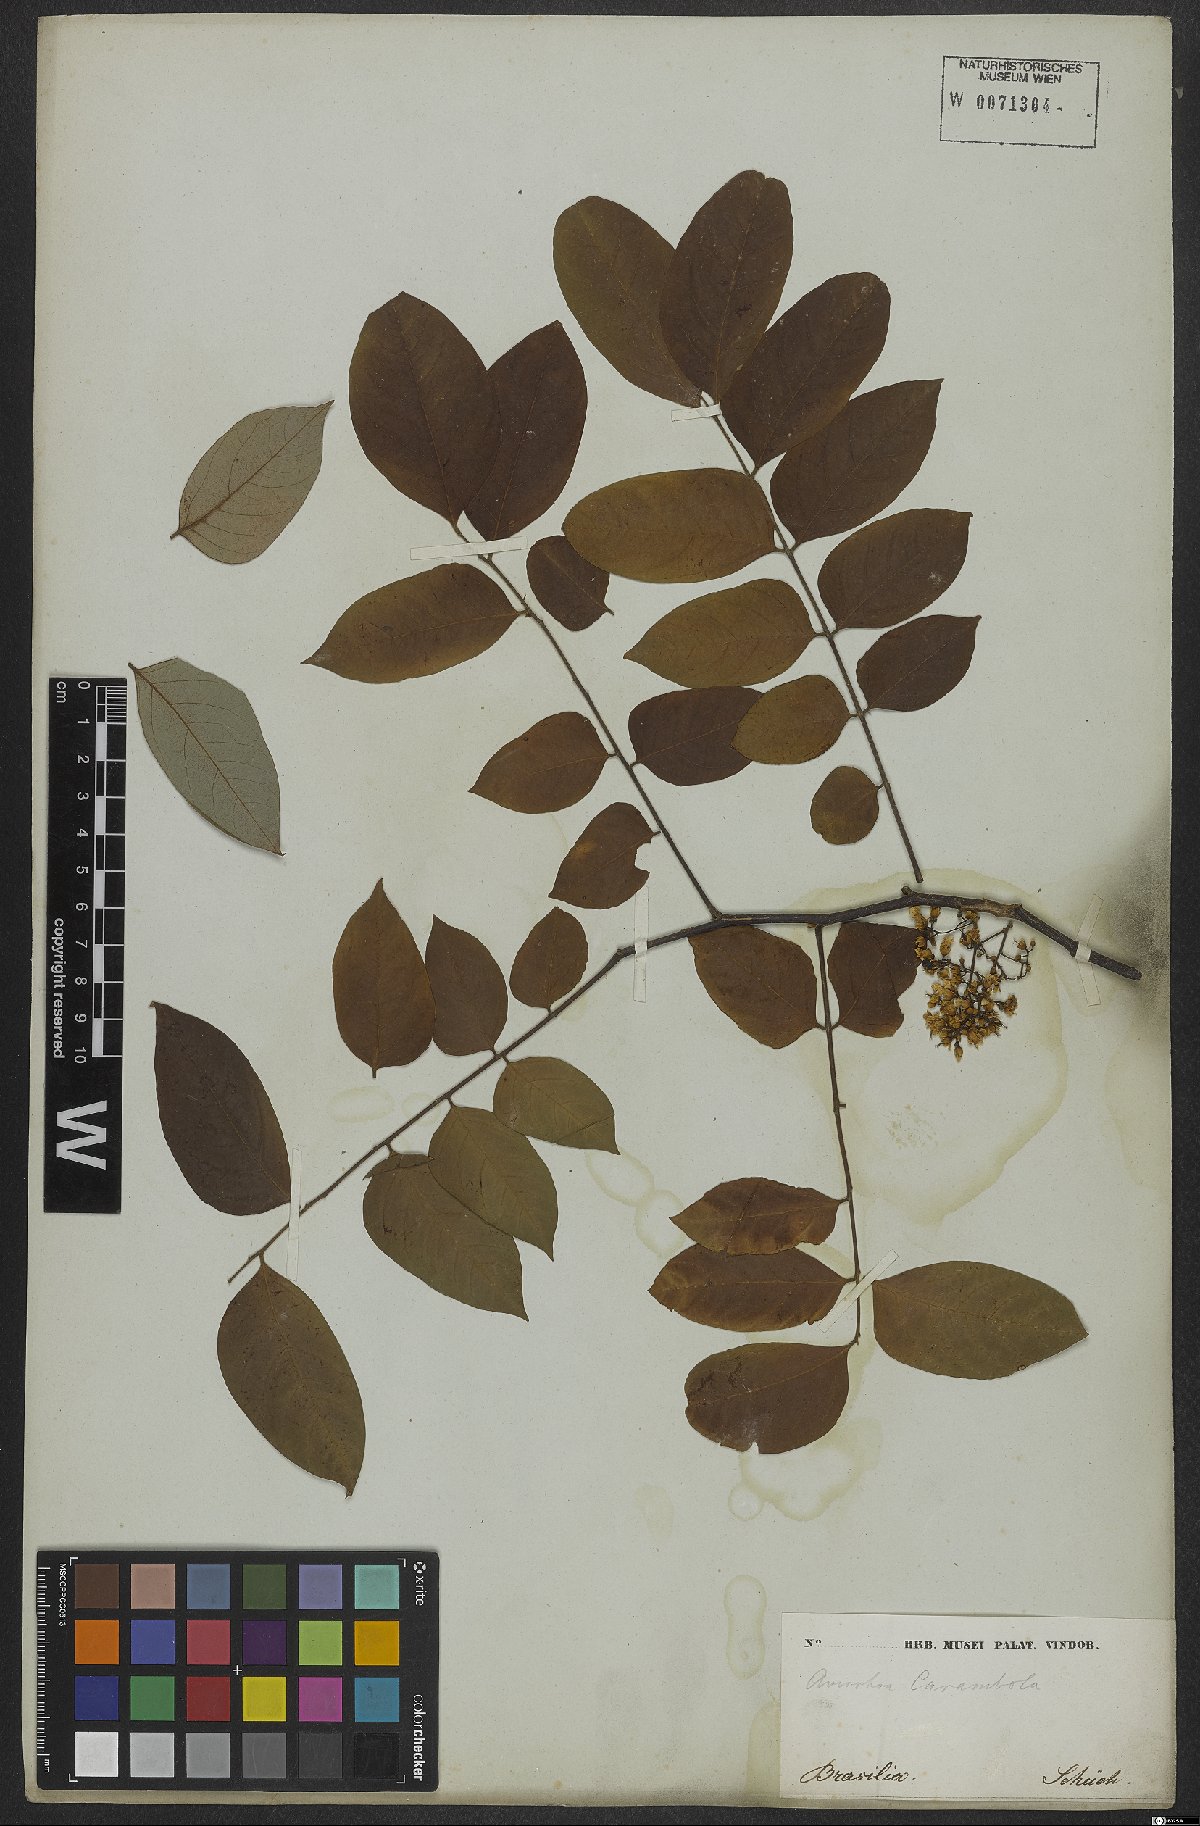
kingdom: Plantae
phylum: Tracheophyta
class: Magnoliopsida
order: Oxalidales
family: Oxalidaceae
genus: Averrhoa
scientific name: Averrhoa carambola
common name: Blimbing
